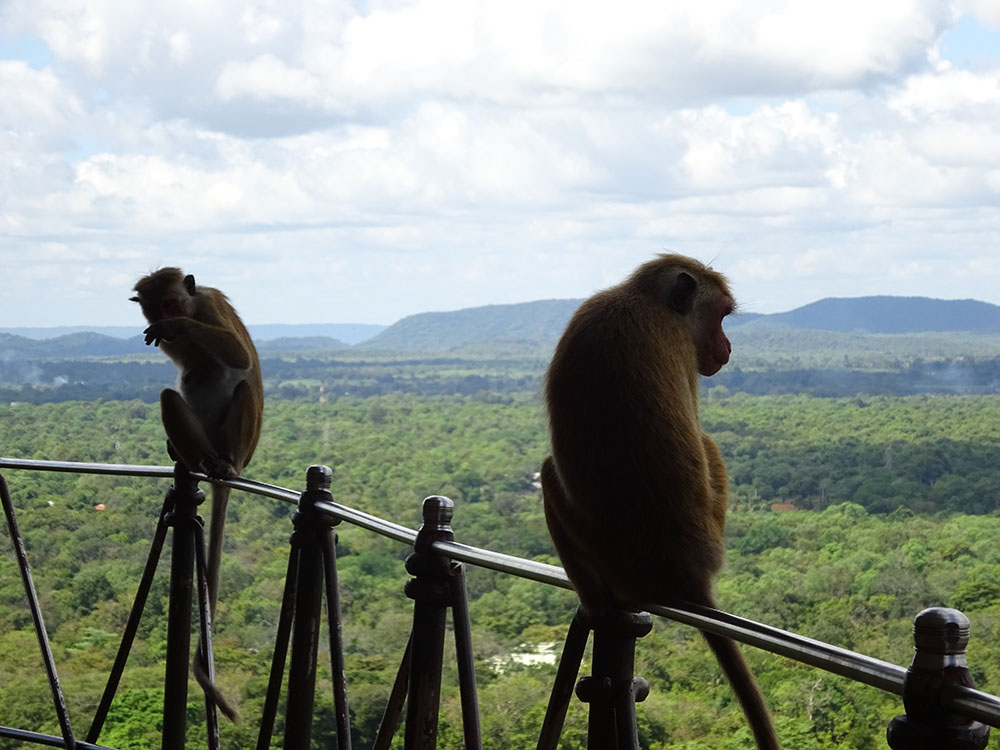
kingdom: Animalia
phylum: Chordata
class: Mammalia
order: Primates
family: Cercopithecidae
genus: Macaca
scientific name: Macaca sinica
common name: Toque macaque
